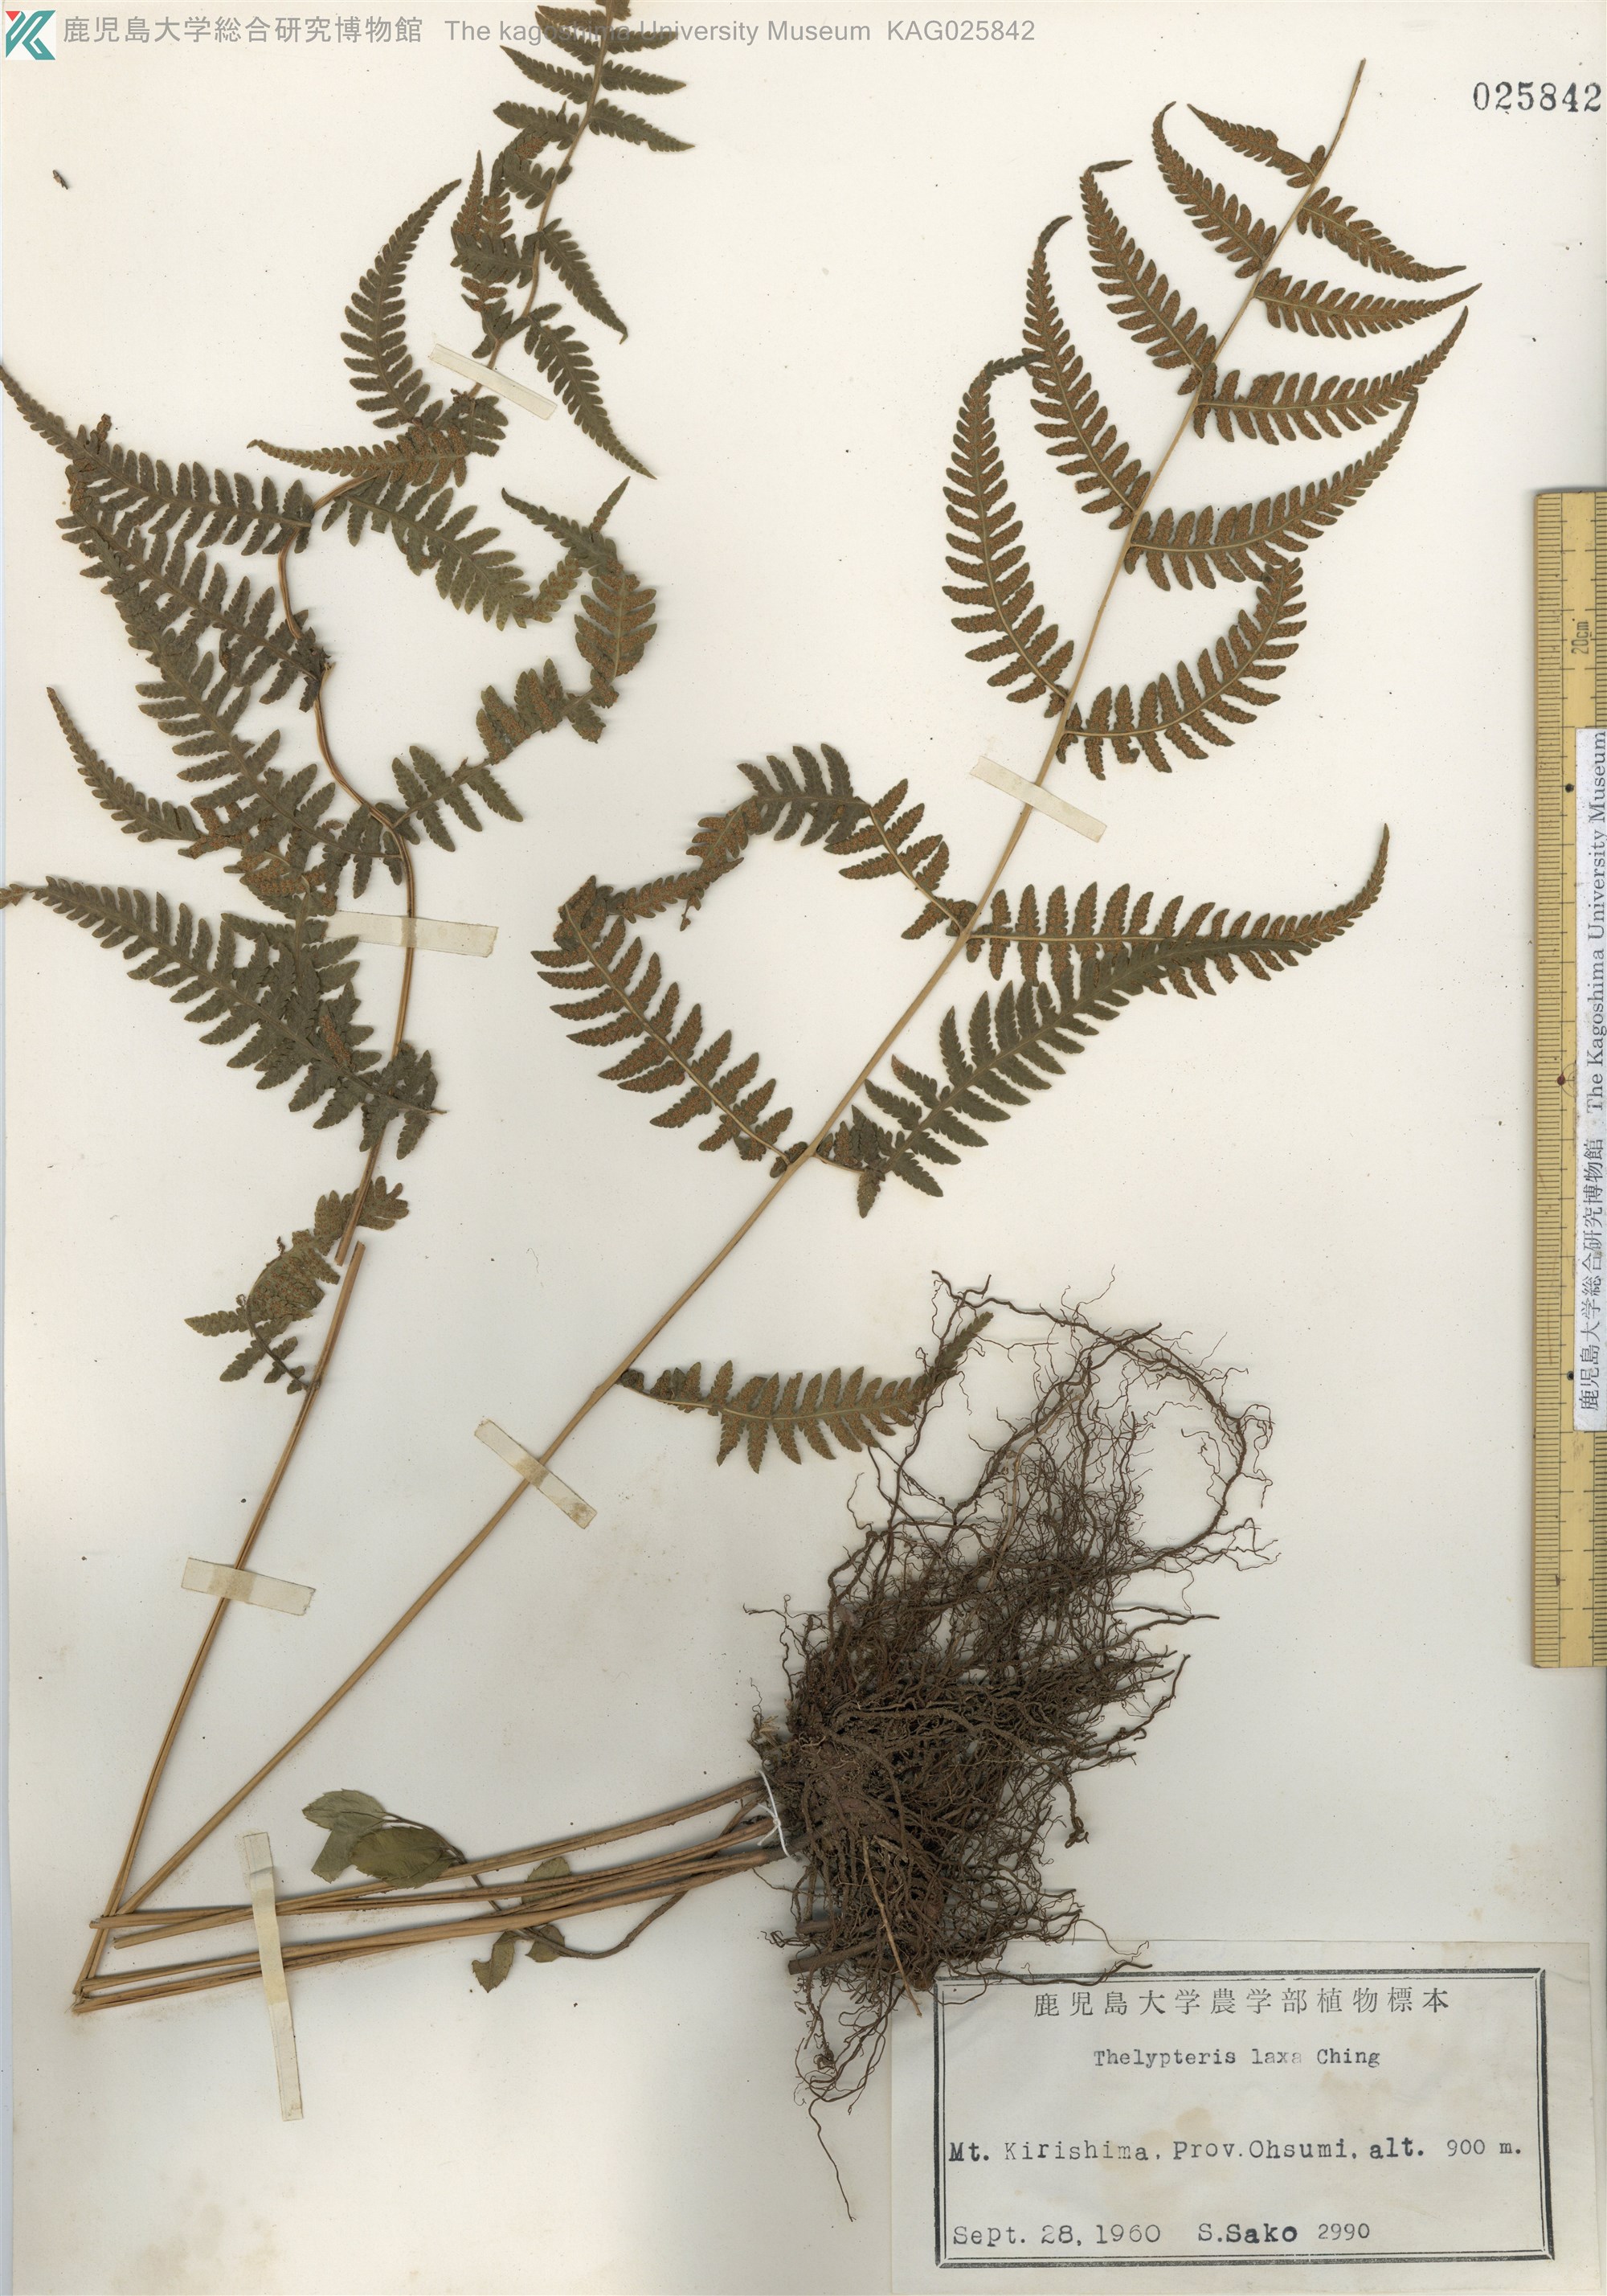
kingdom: Plantae
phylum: Tracheophyta
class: Polypodiopsida
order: Polypodiales
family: Thelypteridaceae
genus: Metathelypteris
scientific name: Metathelypteris laxa
